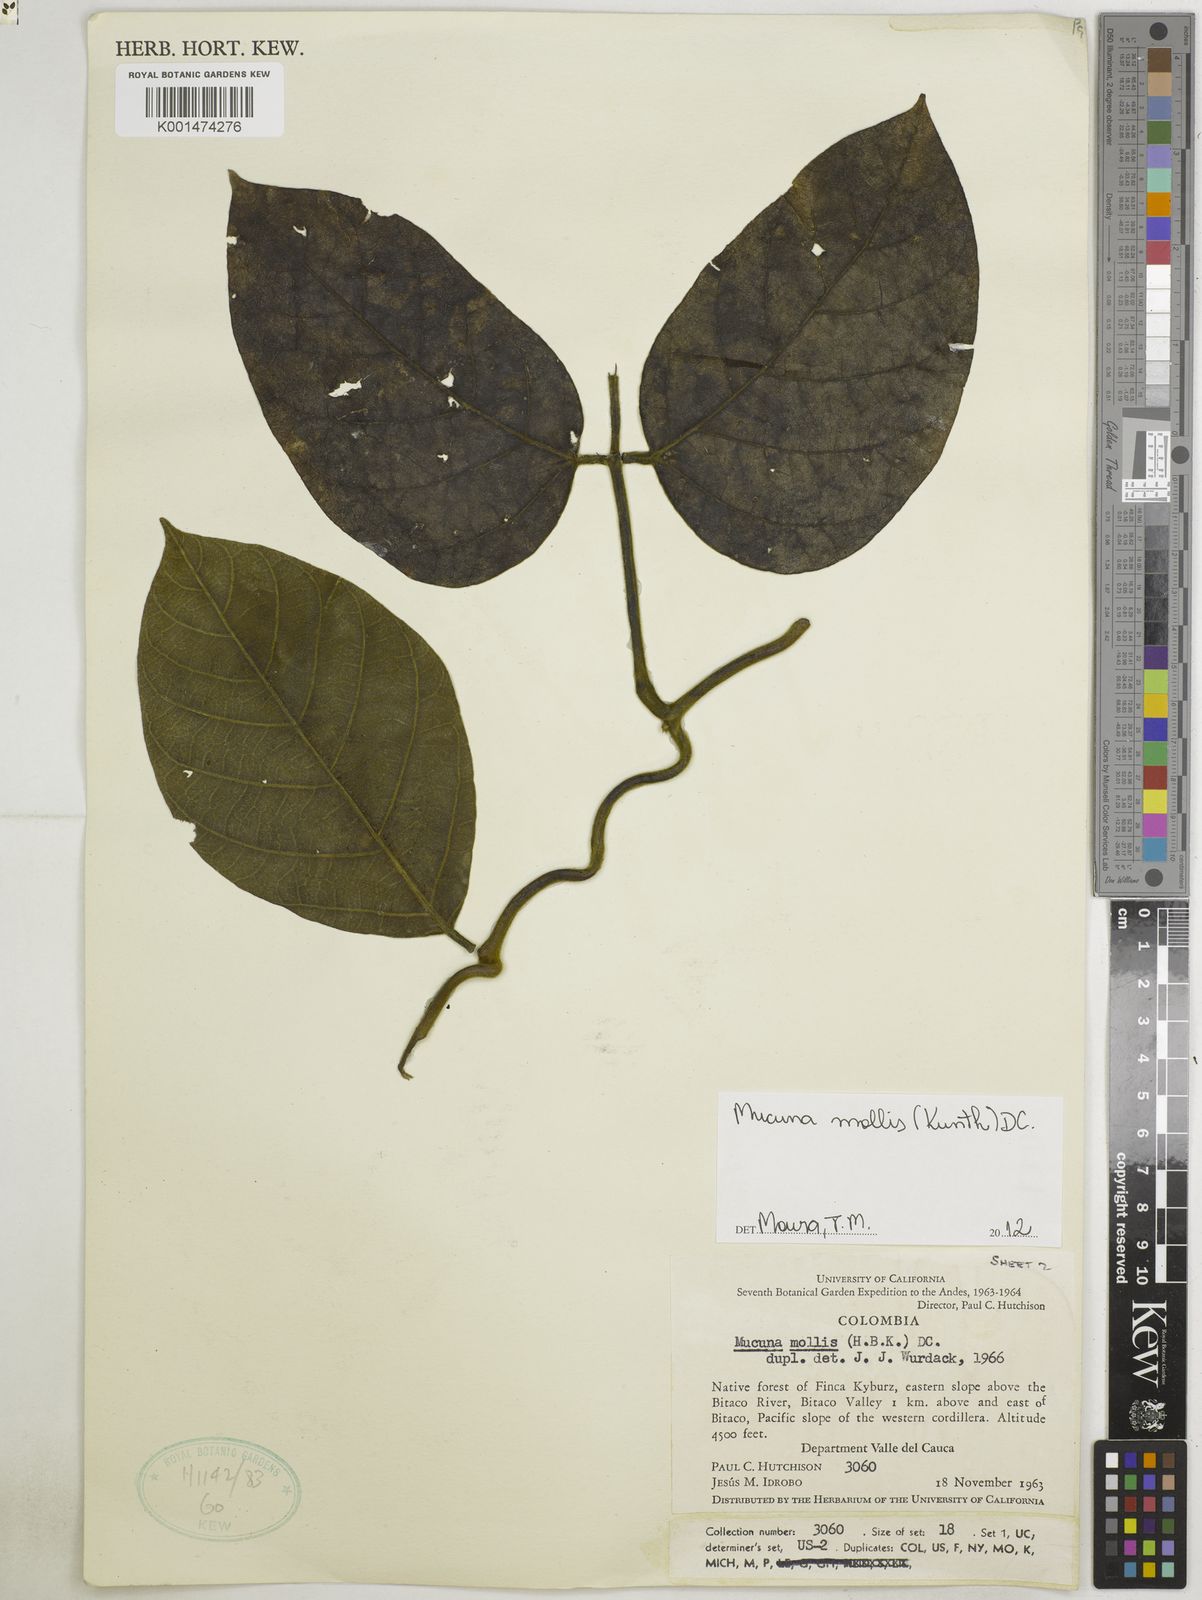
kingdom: Plantae
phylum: Tracheophyta
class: Magnoliopsida
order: Fabales
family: Fabaceae
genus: Mucuna
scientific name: Mucuna mollis
